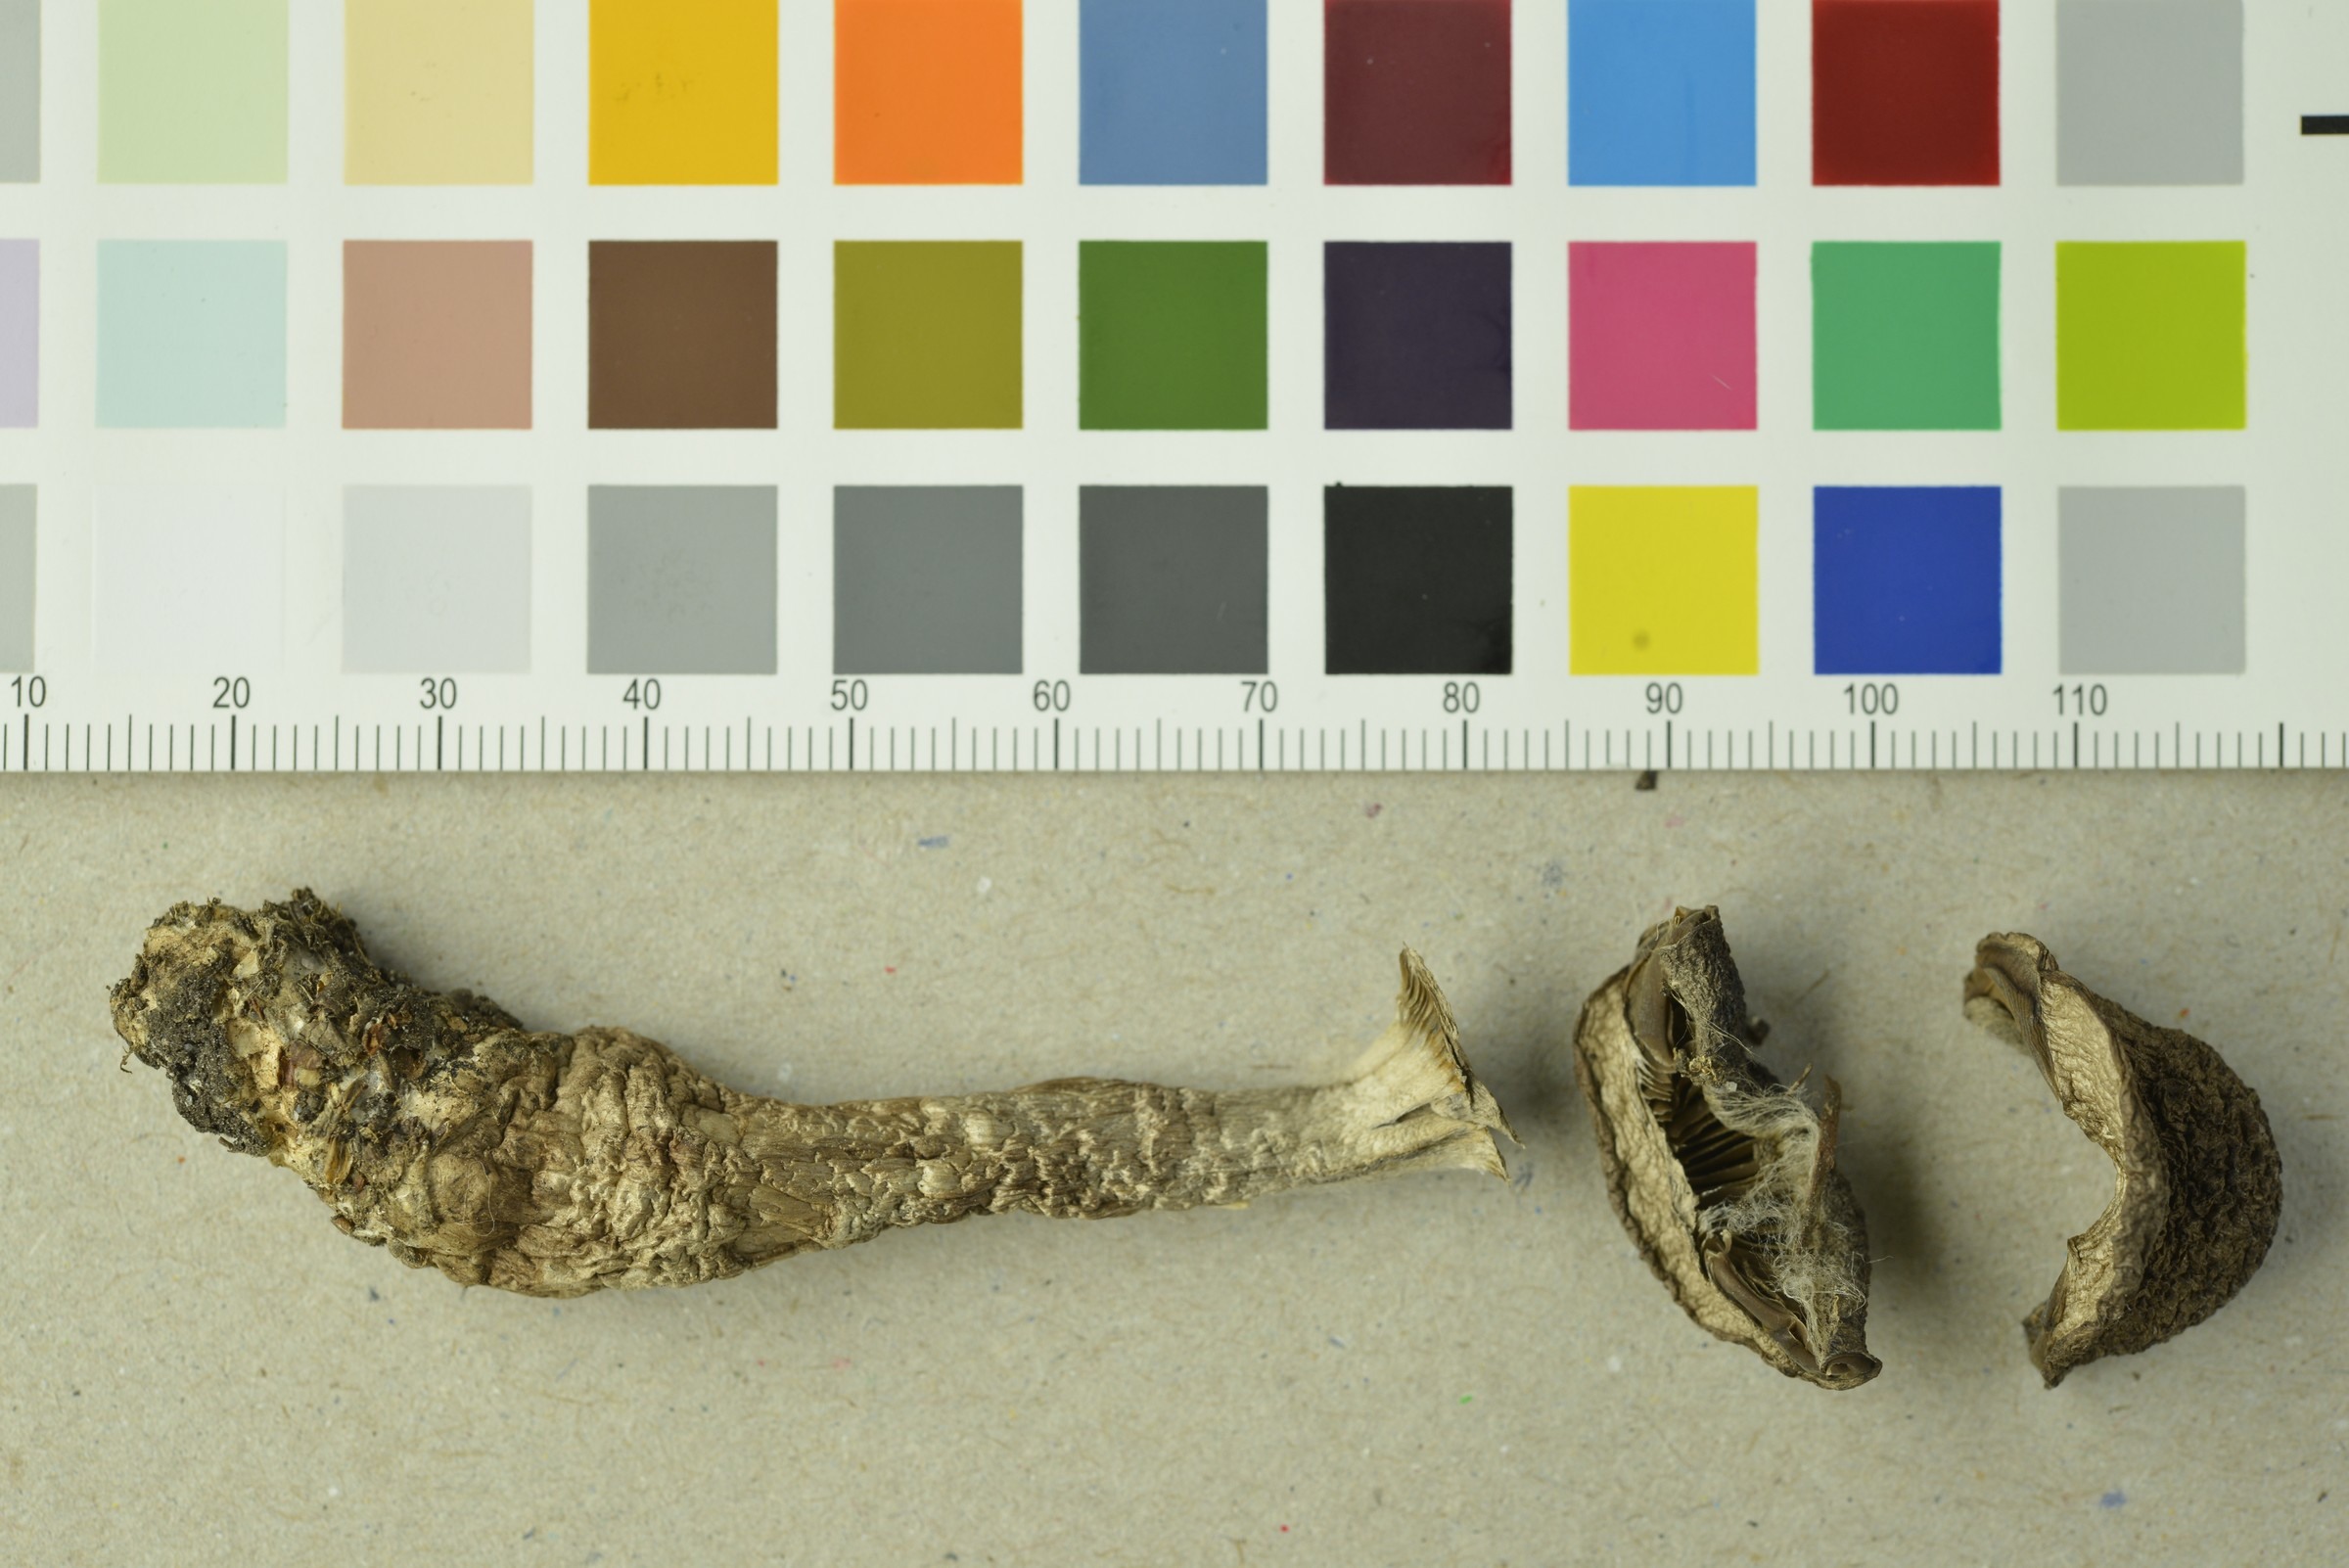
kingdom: Fungi
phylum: Basidiomycota
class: Agaricomycetes
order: Agaricales
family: Cortinariaceae
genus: Cortinarius
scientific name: Cortinarius sordidemaculatus
